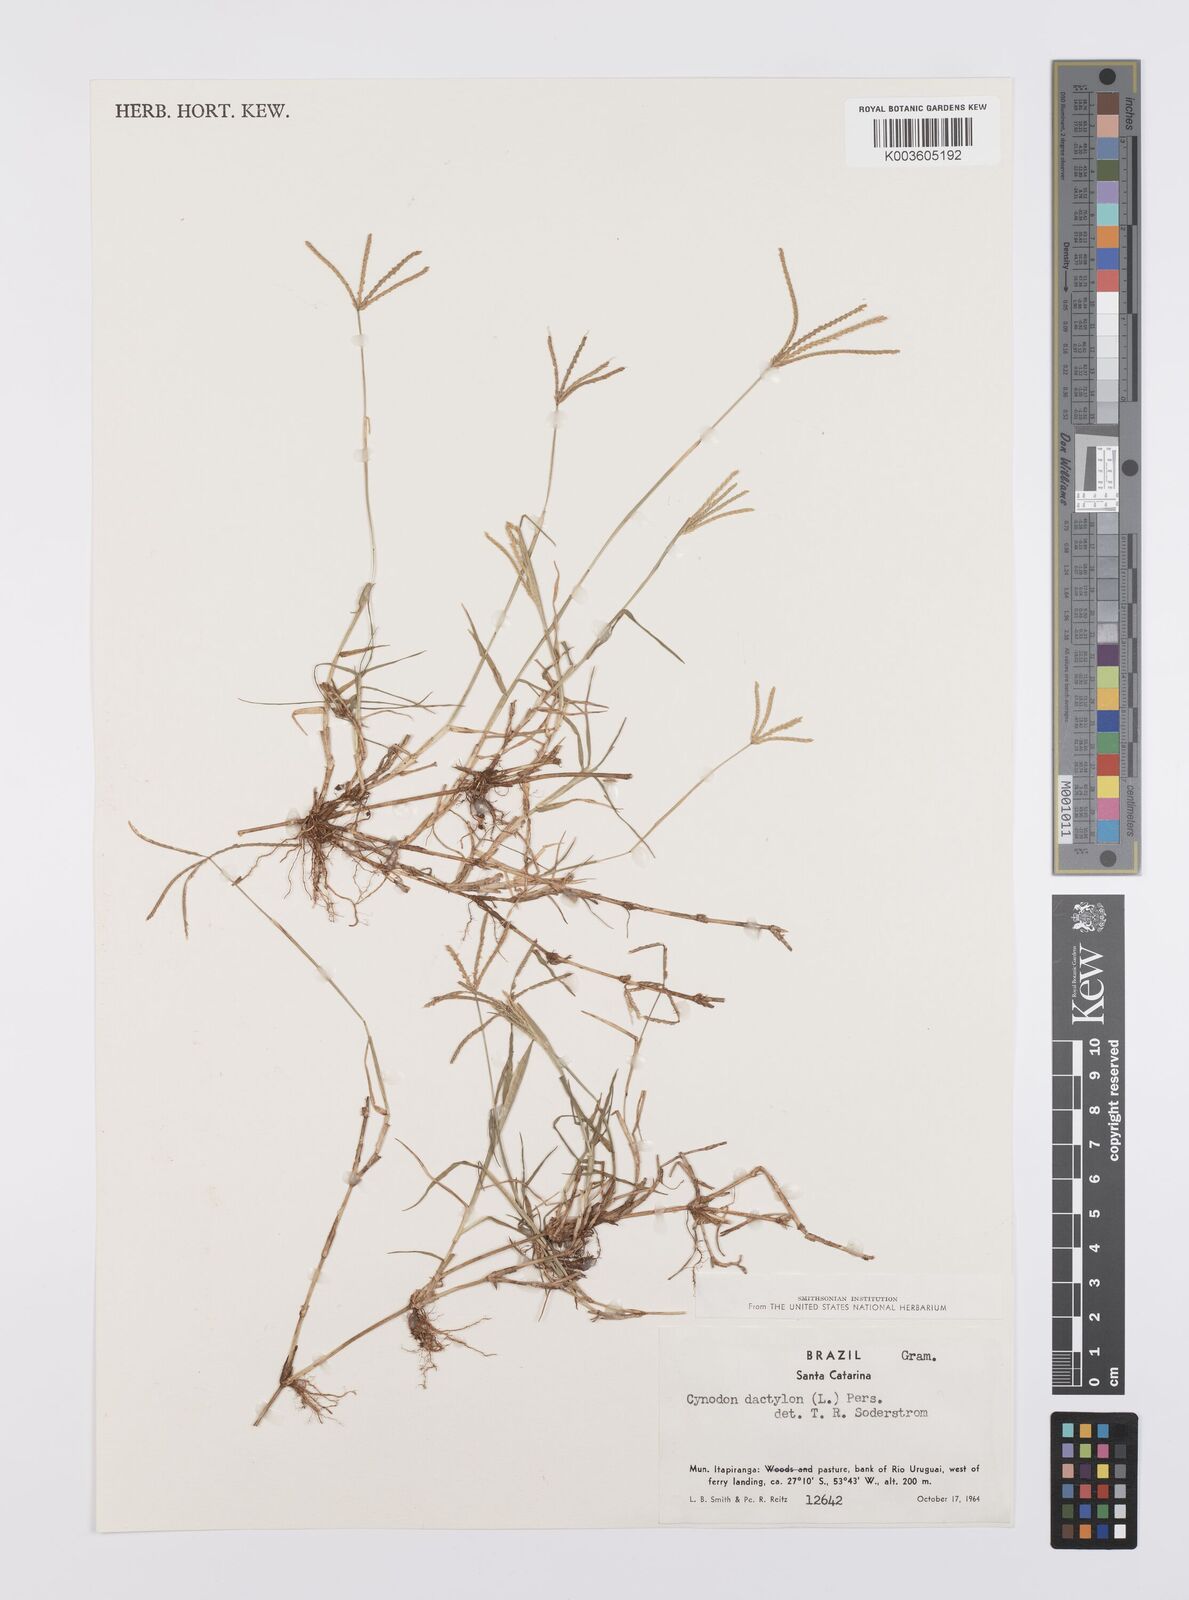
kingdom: Plantae
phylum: Tracheophyta
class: Liliopsida
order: Poales
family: Poaceae
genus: Cynodon
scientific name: Cynodon dactylon
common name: Bermuda grass
